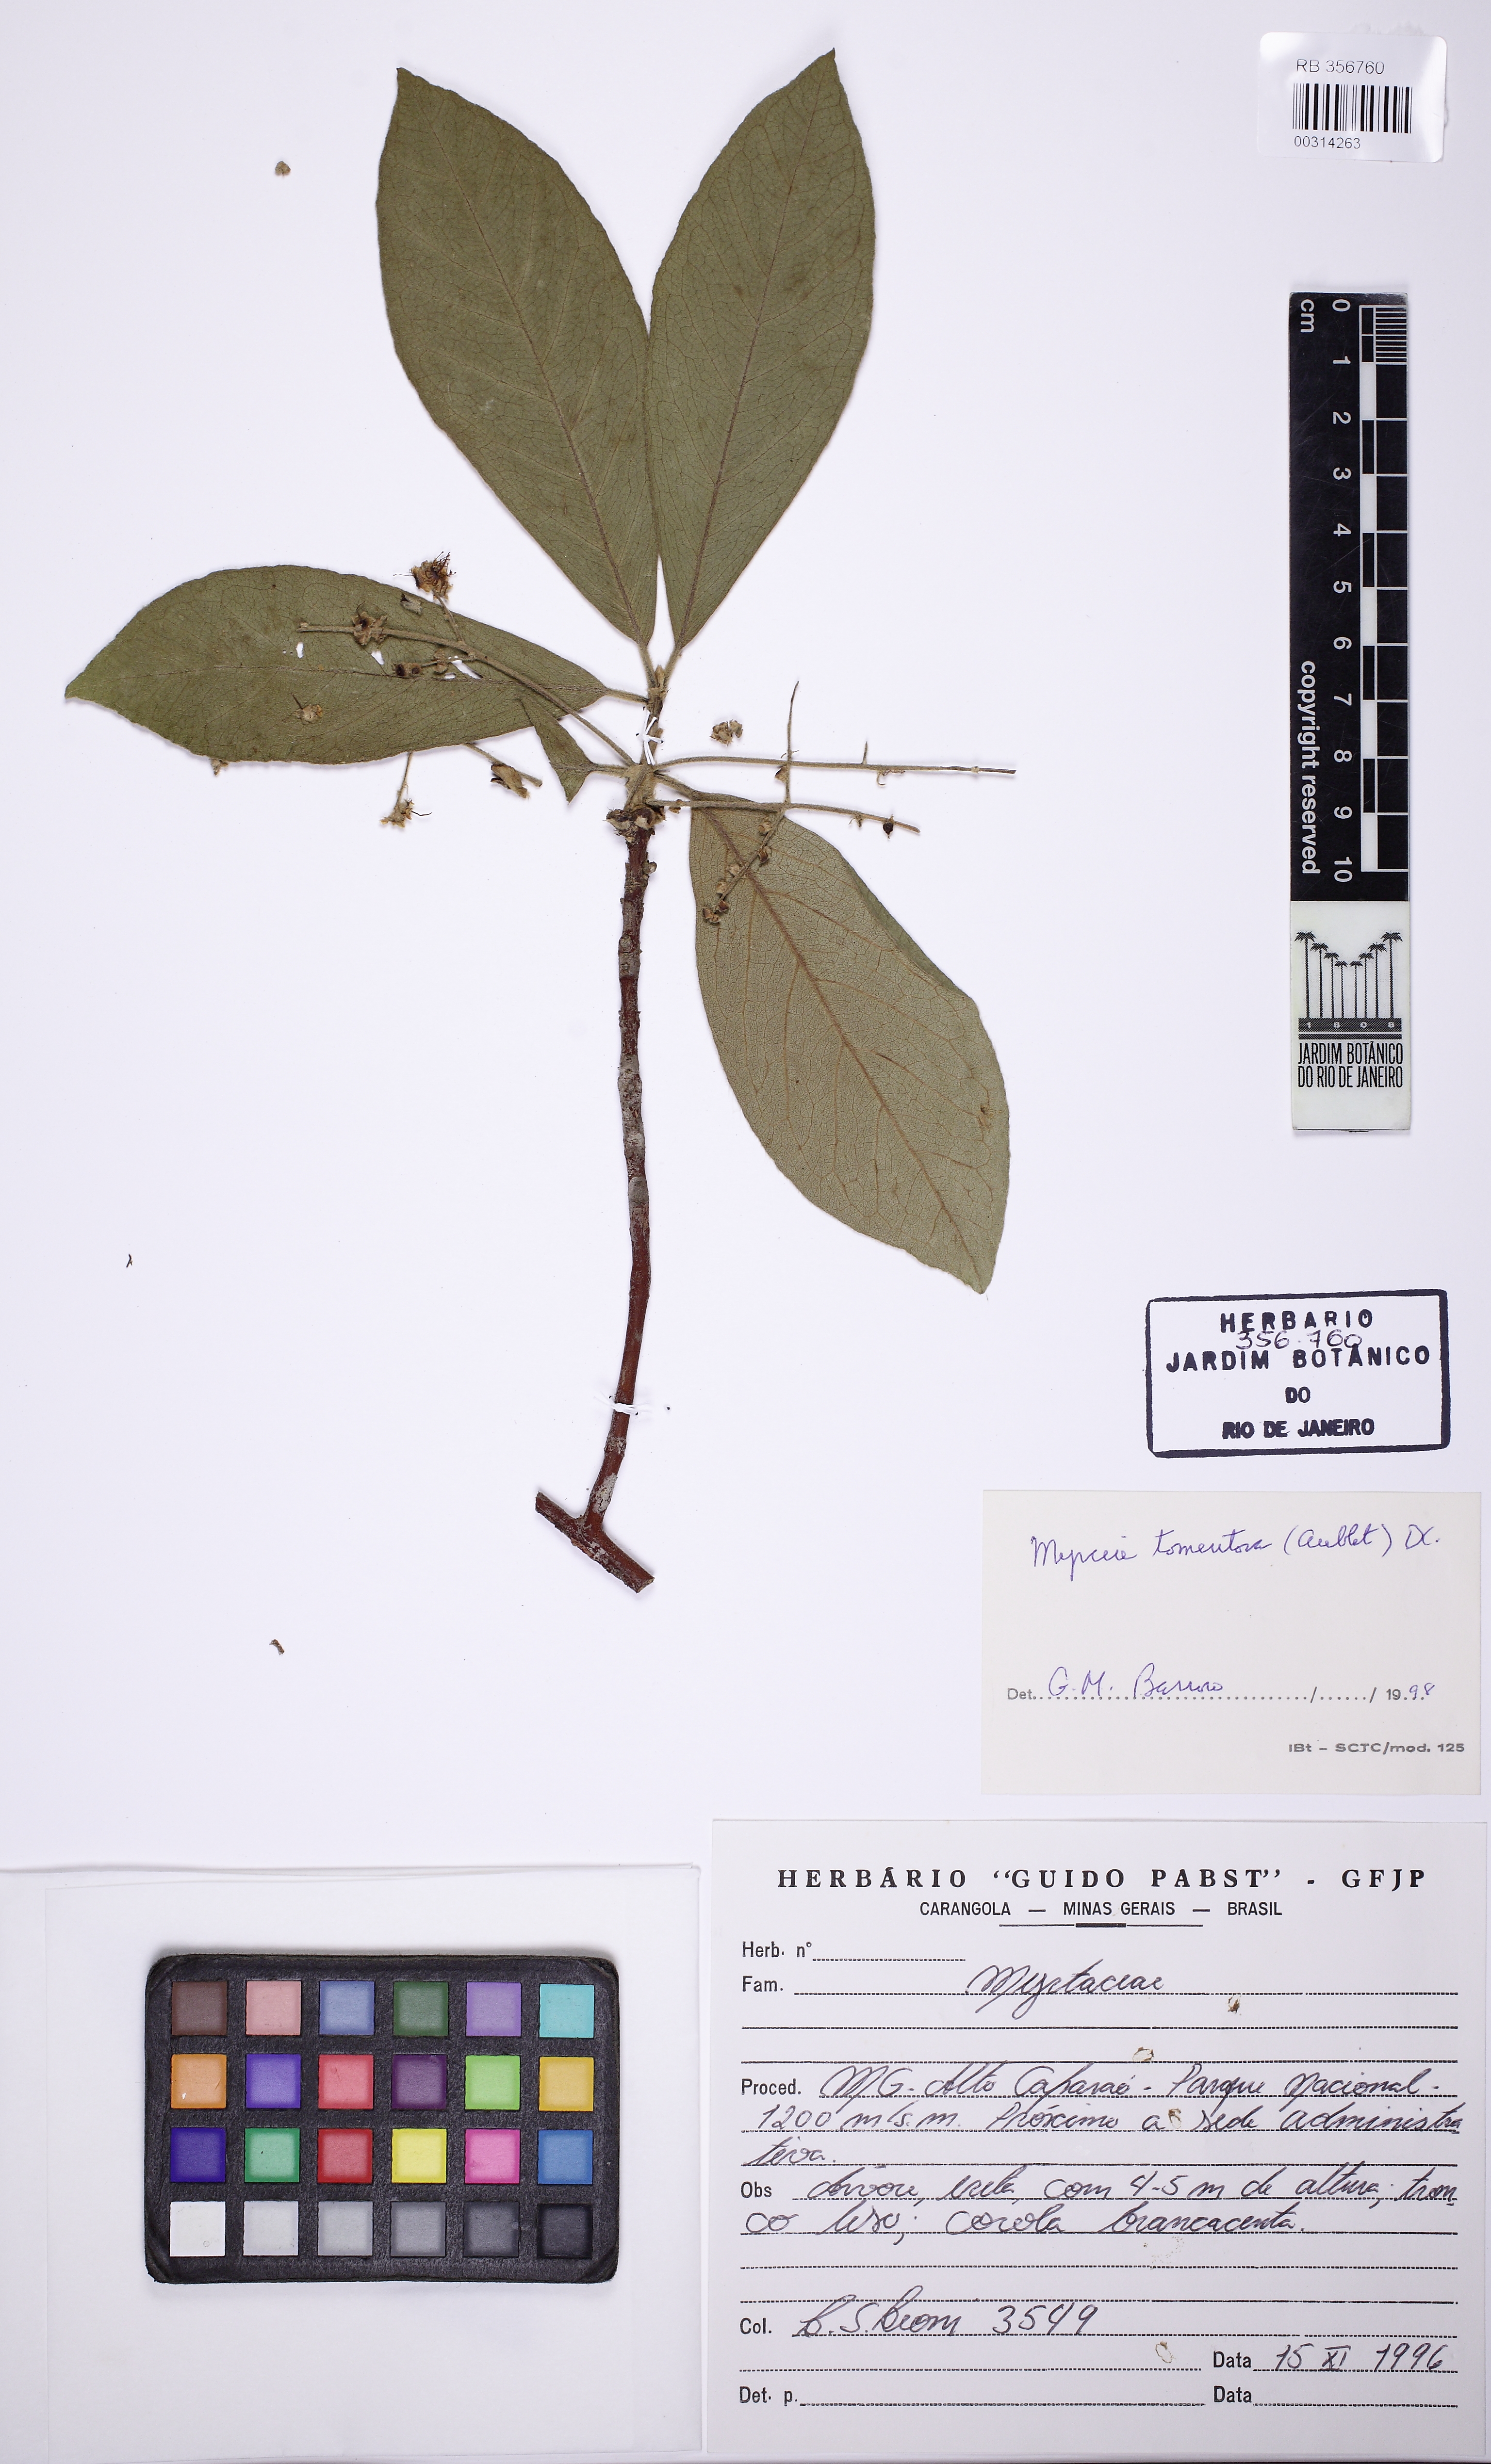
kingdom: Plantae
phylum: Tracheophyta
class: Magnoliopsida
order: Myrtales
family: Myrtaceae
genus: Myrcia
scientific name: Myrcia tomentosa
